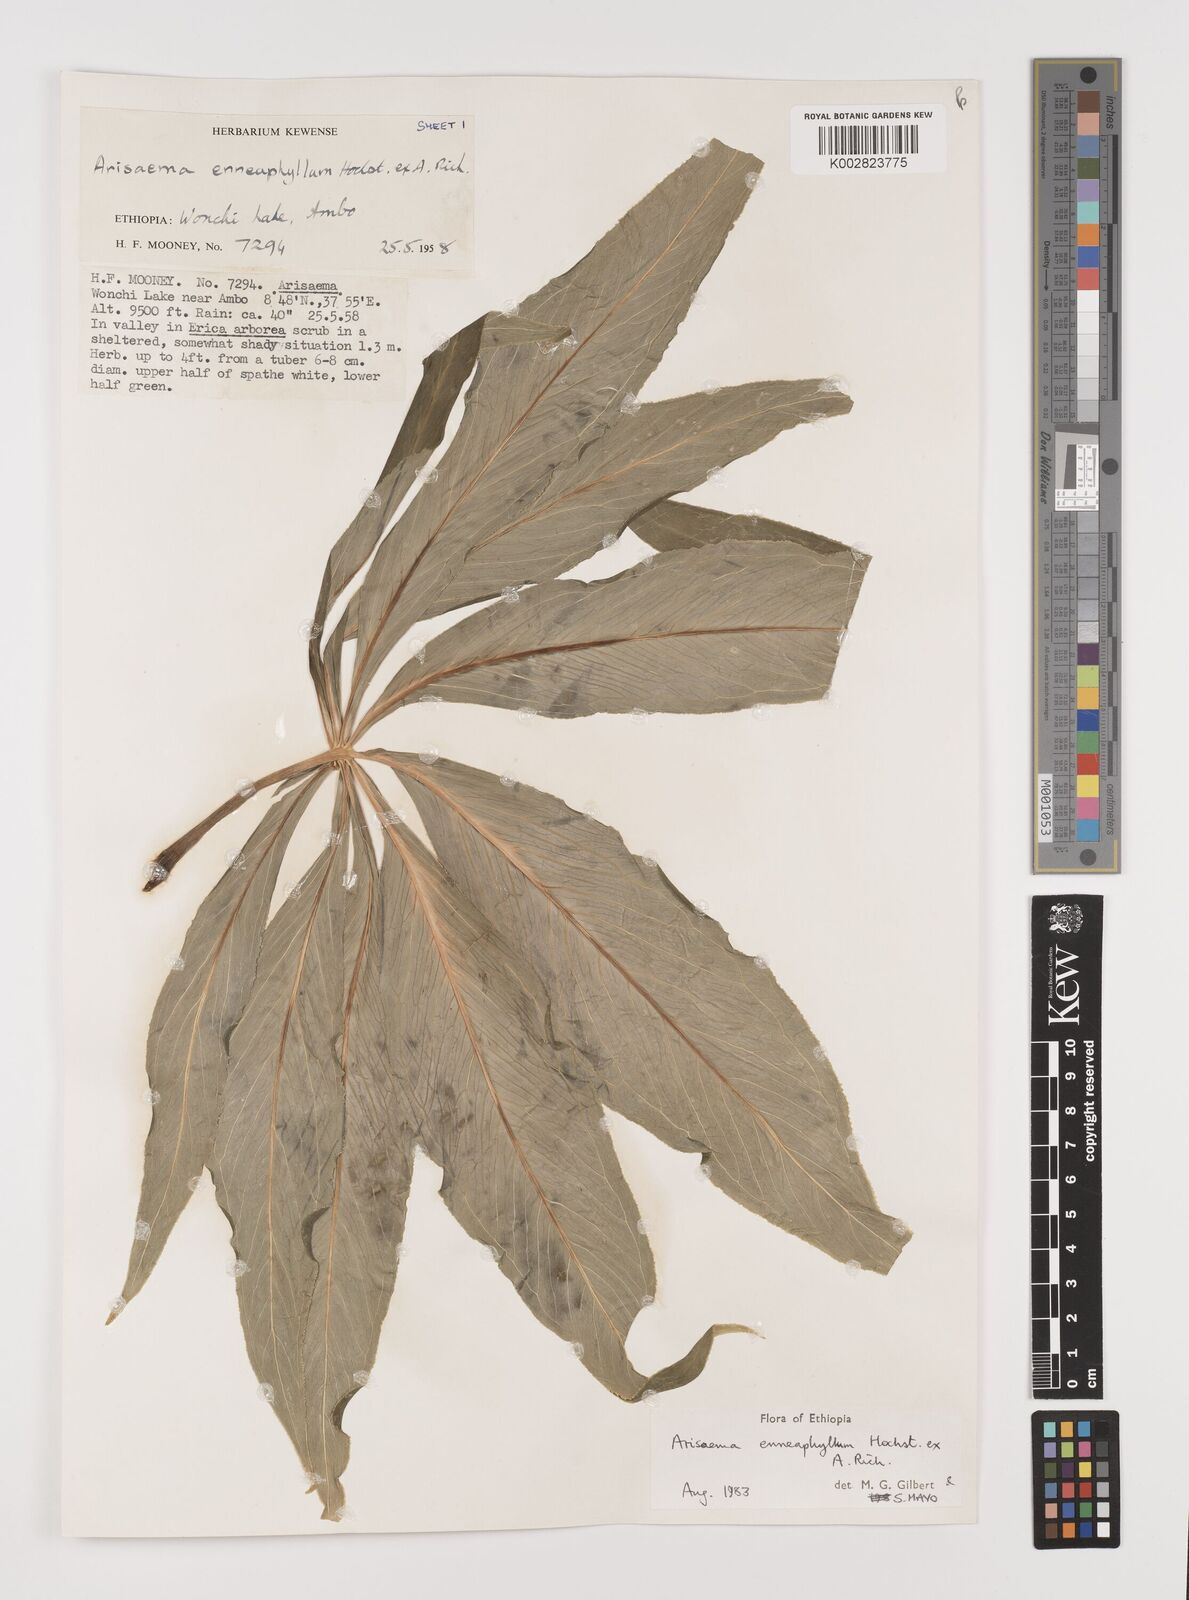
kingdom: Plantae
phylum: Tracheophyta
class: Liliopsida
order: Alismatales
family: Araceae
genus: Arisaema
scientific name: Arisaema enneaphyllum
